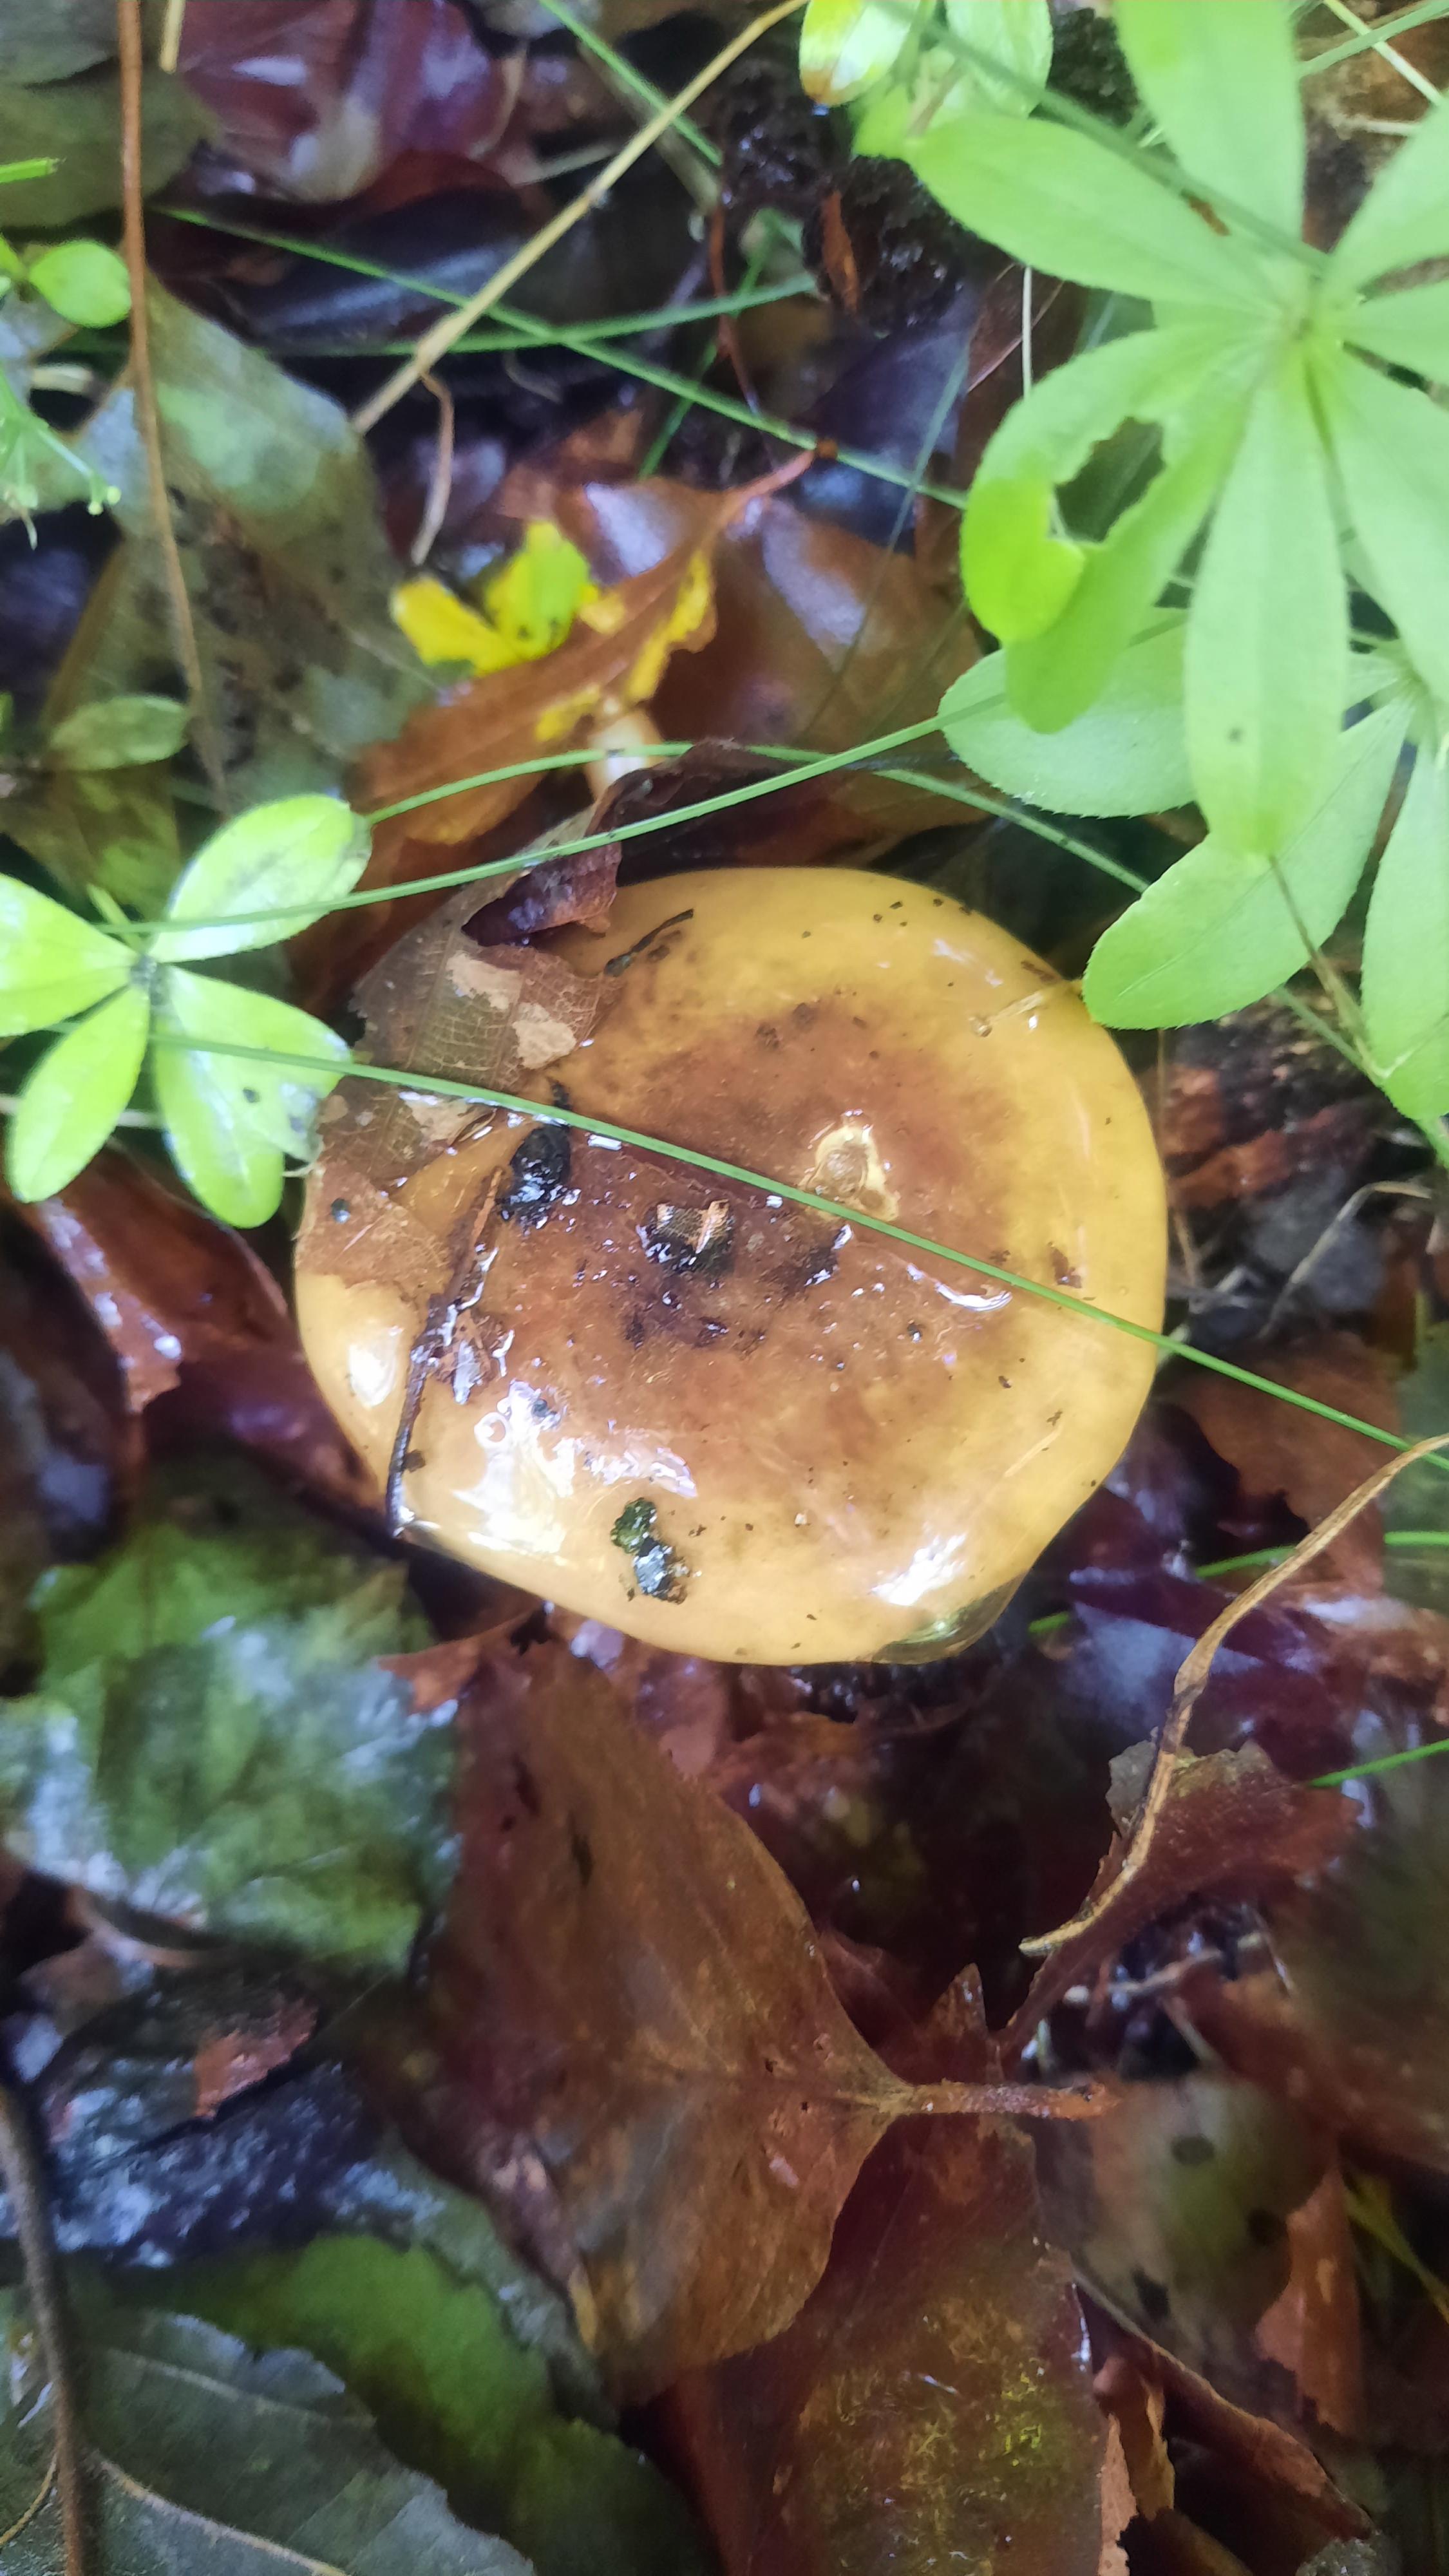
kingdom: Fungi
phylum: Basidiomycota
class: Agaricomycetes
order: Agaricales
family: Cortinariaceae
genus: Calonarius
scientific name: Calonarius citrinus
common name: citrongul slørhat
